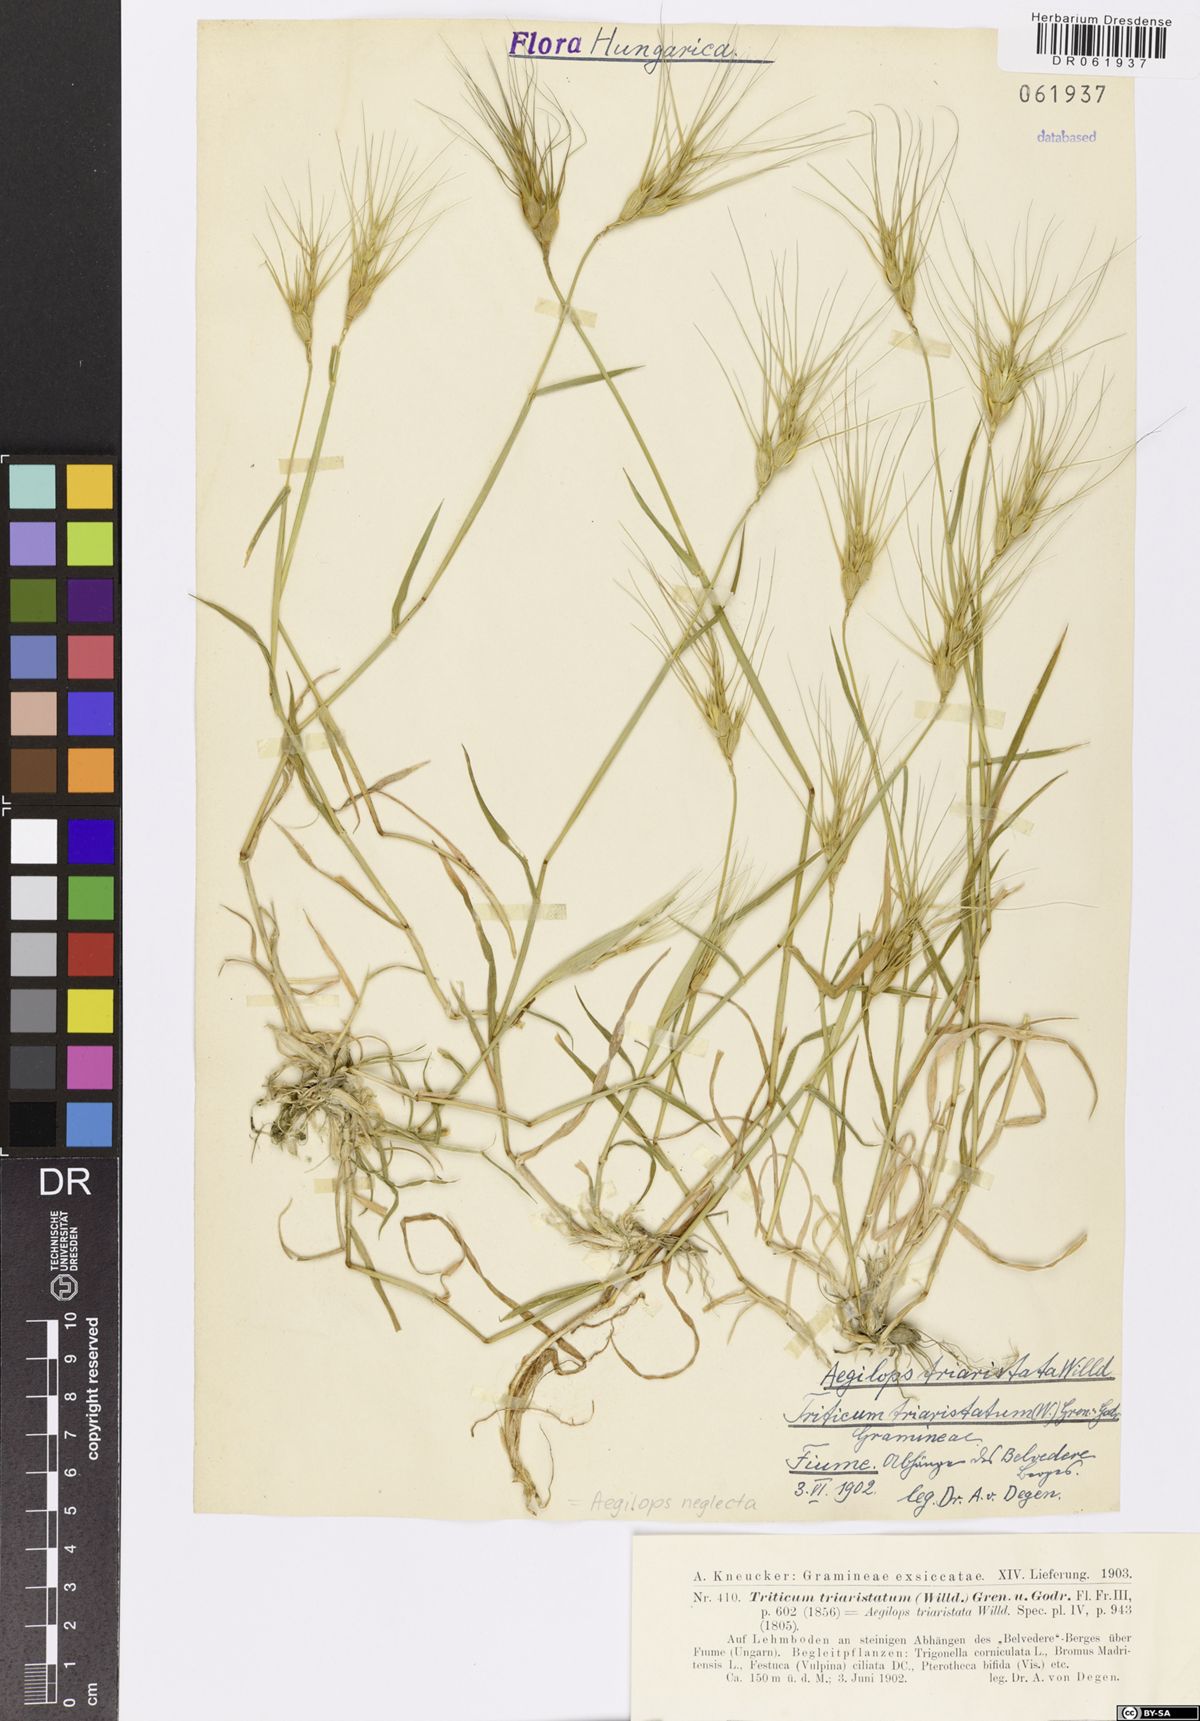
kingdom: Plantae
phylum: Tracheophyta
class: Liliopsida
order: Poales
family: Poaceae
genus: Aegilops
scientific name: Aegilops neglecta
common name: Three-awn goat grass
